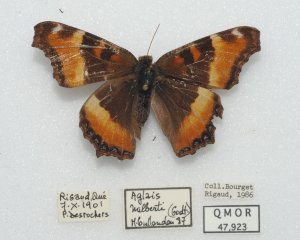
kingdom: Animalia
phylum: Arthropoda
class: Insecta
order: Lepidoptera
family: Nymphalidae
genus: Aglais
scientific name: Aglais milberti
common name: Milbert's Tortoiseshell
